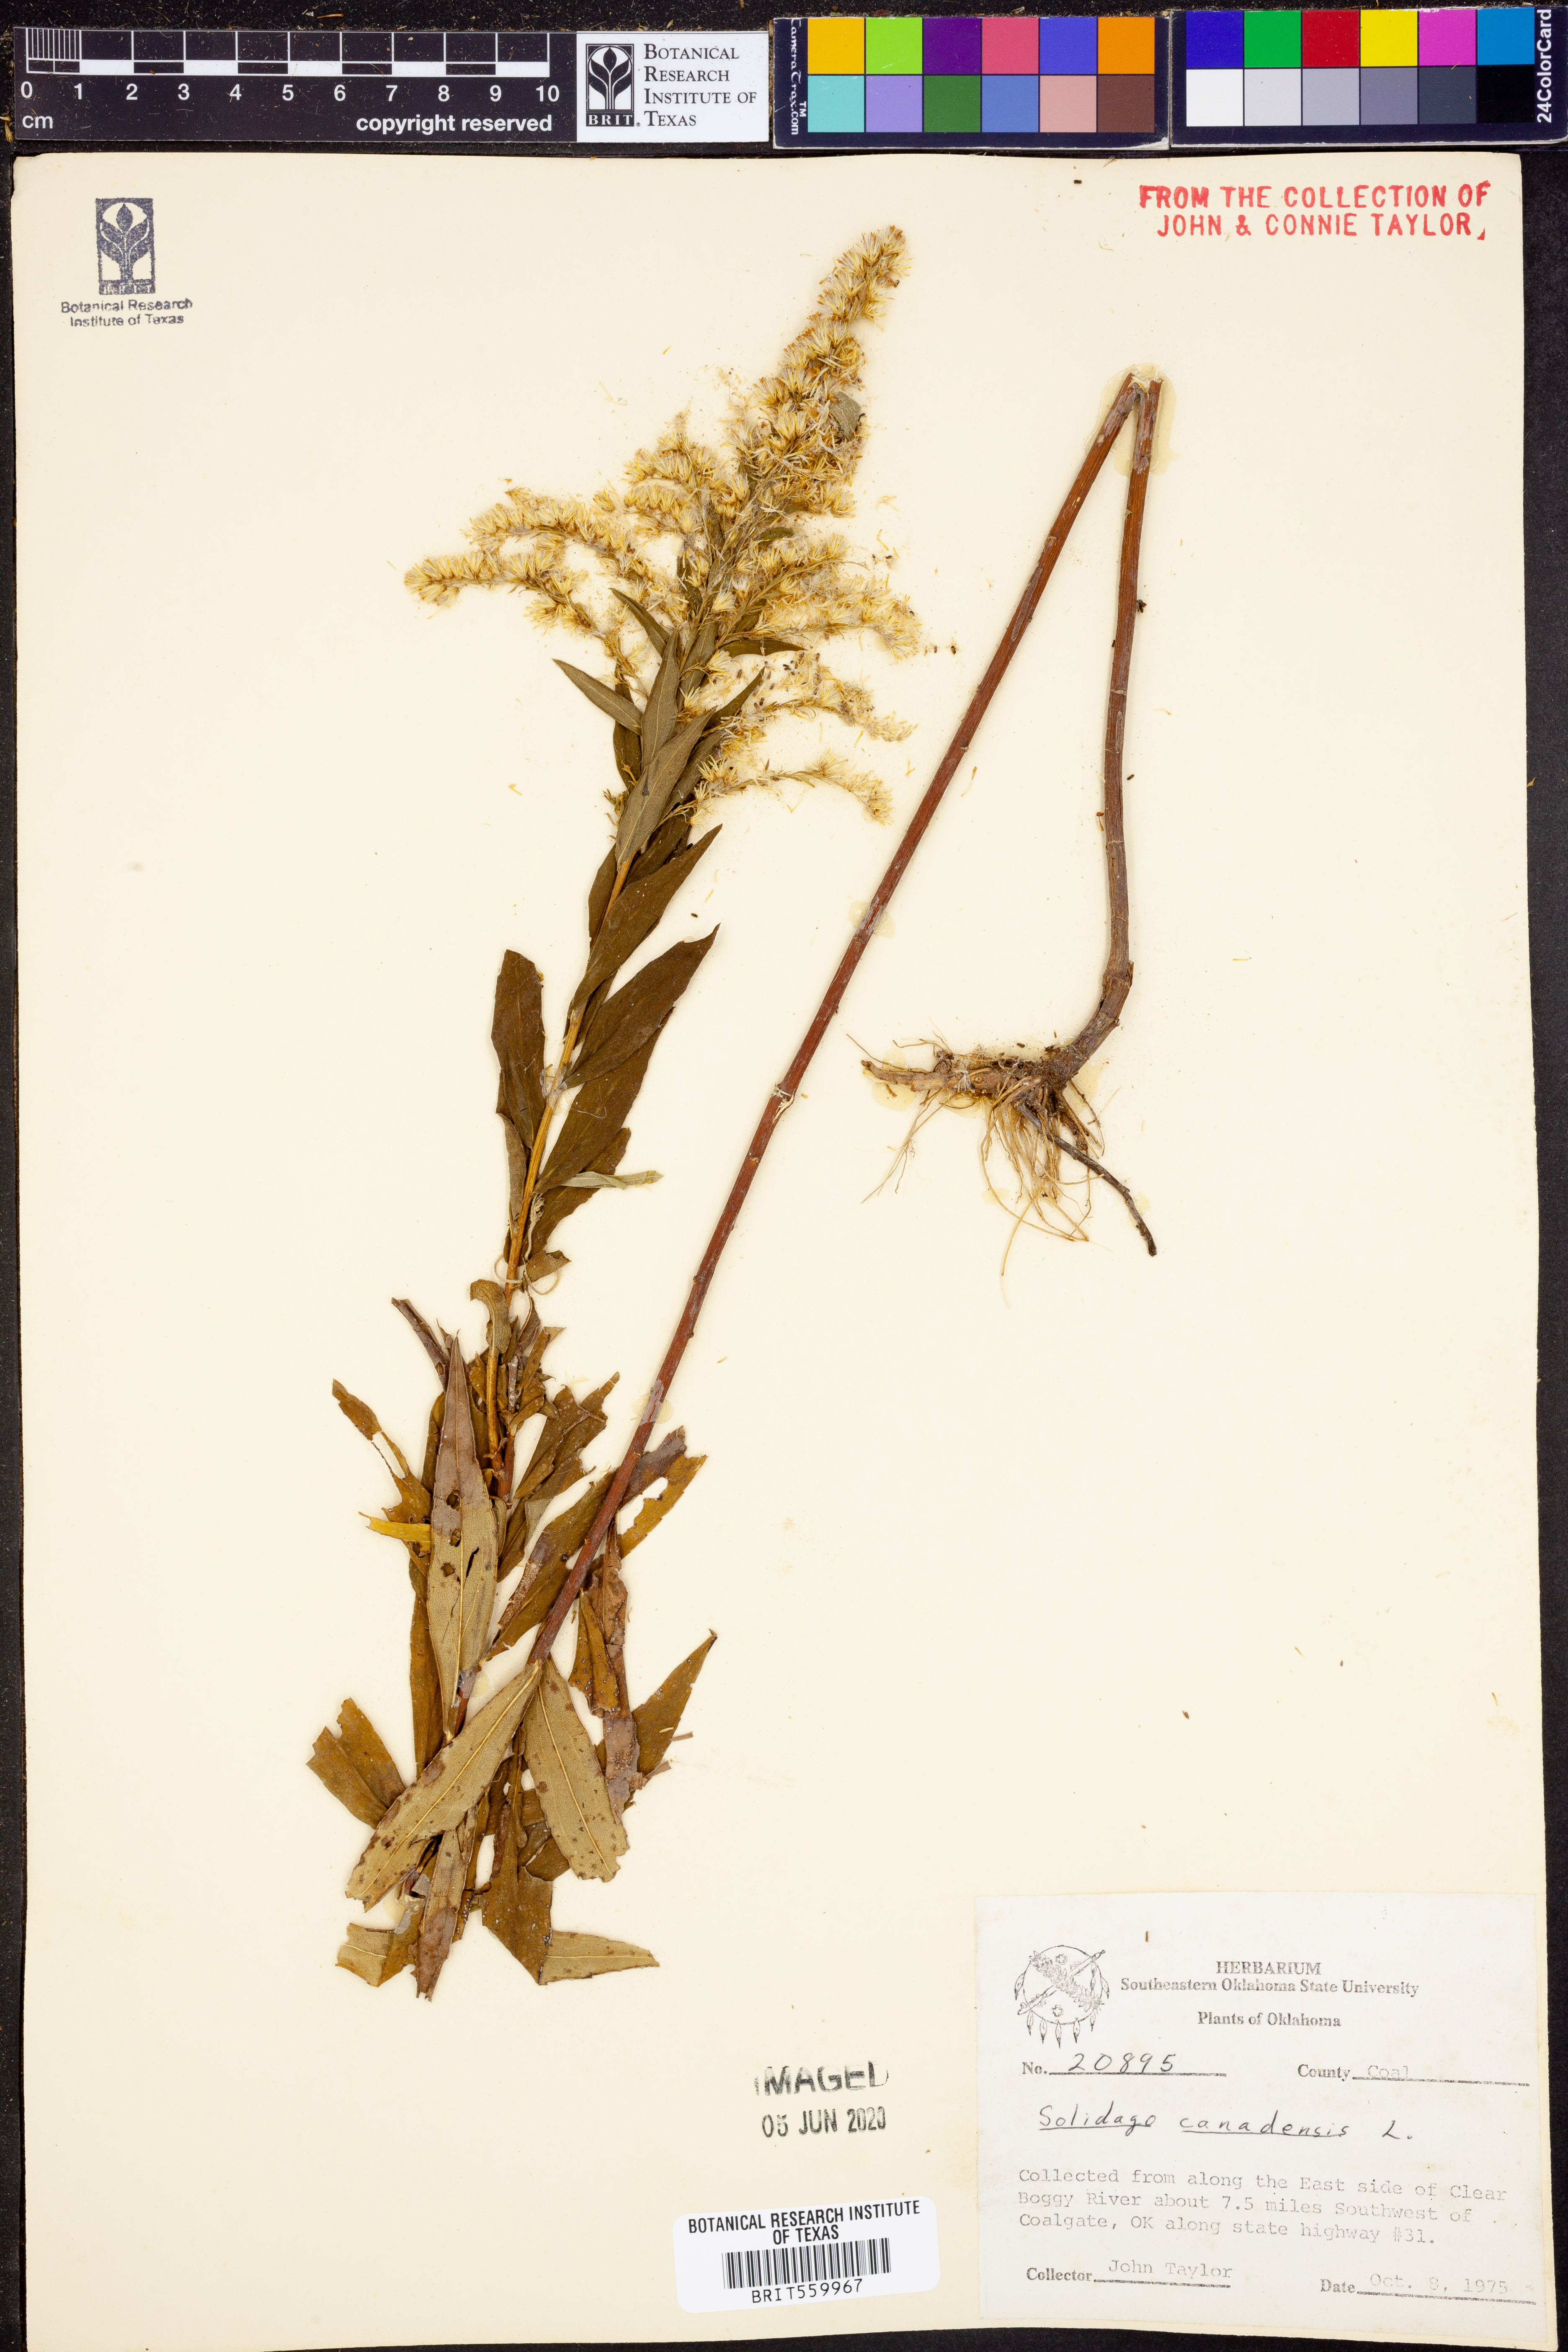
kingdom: Plantae
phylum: Tracheophyta
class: Magnoliopsida
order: Asterales
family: Asteraceae
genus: Solidago
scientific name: Solidago canadensis
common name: Canada goldenrod
